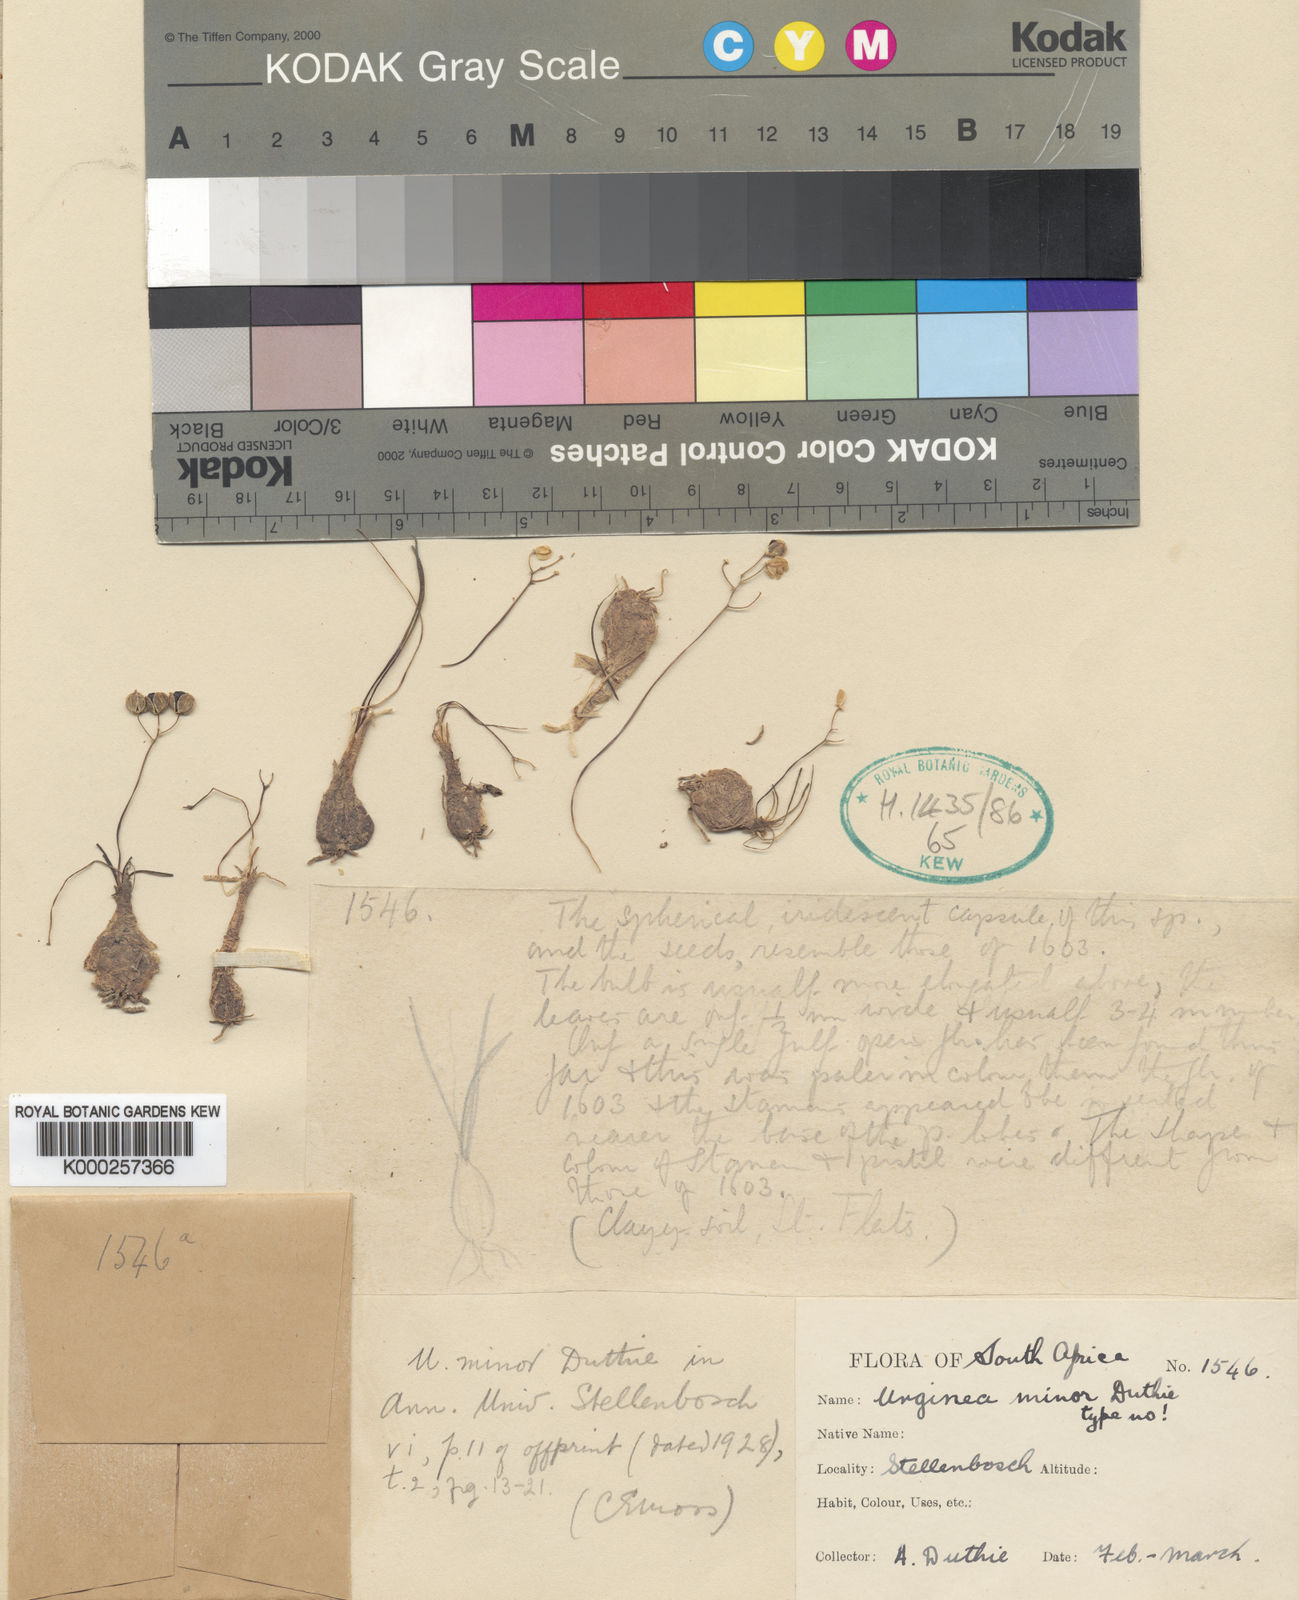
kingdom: Plantae
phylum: Tracheophyta
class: Liliopsida
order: Asparagales
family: Asparagaceae
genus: Austronea
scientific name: Austronea virens
